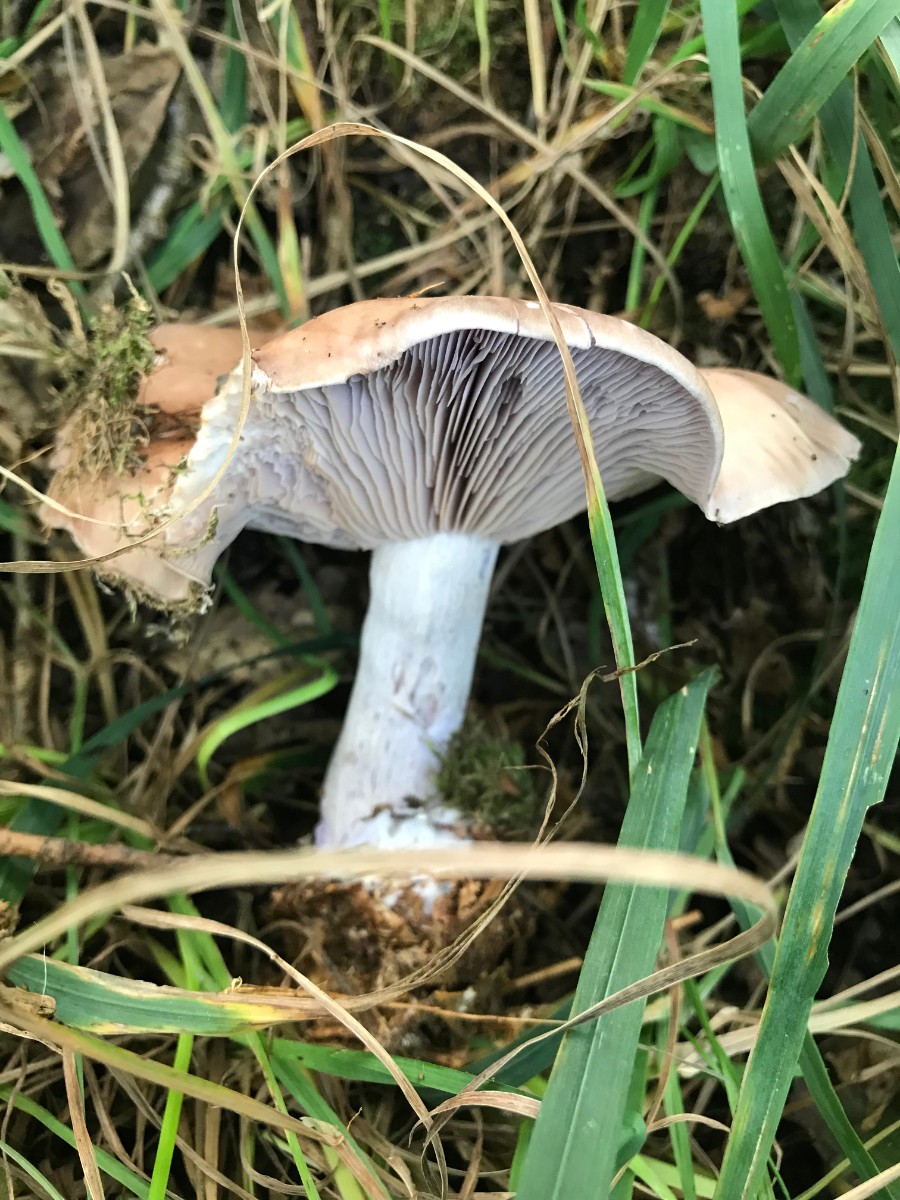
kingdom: Fungi
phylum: Basidiomycota
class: Agaricomycetes
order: Agaricales
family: Tricholomataceae
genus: Lepista
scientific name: Lepista nuda
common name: violet hekseringshat
